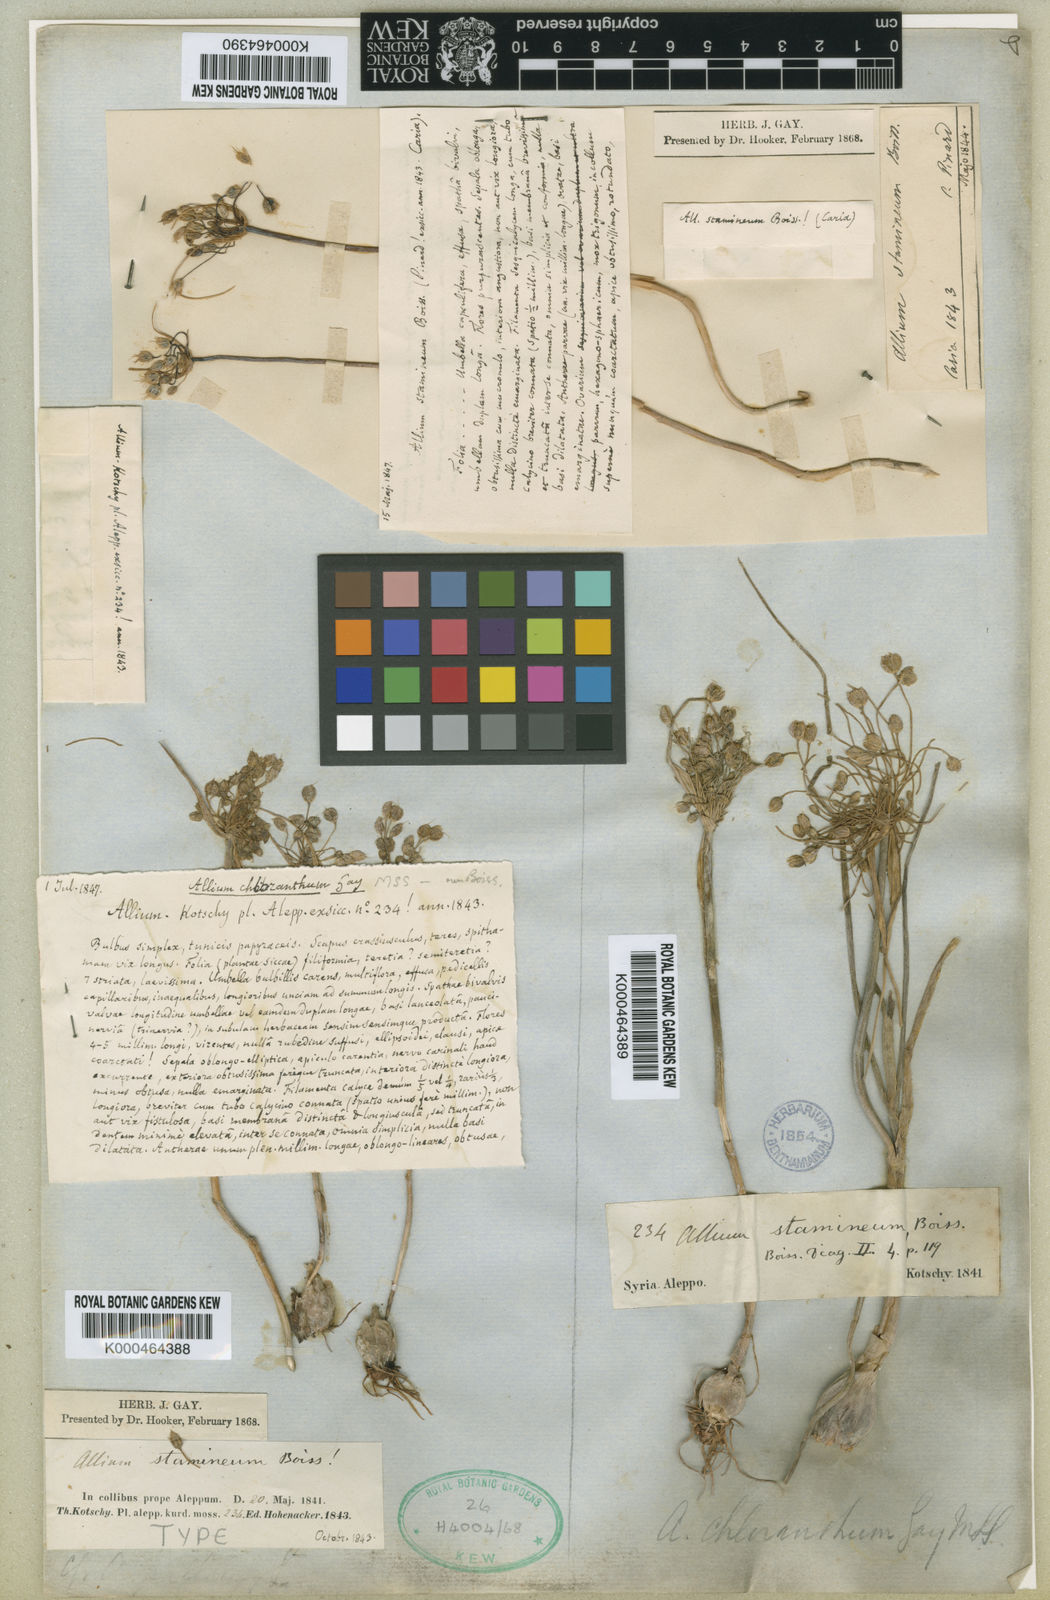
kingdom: Plantae
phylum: Tracheophyta
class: Liliopsida
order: Asparagales
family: Amaryllidaceae
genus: Allium
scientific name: Allium stamineum
